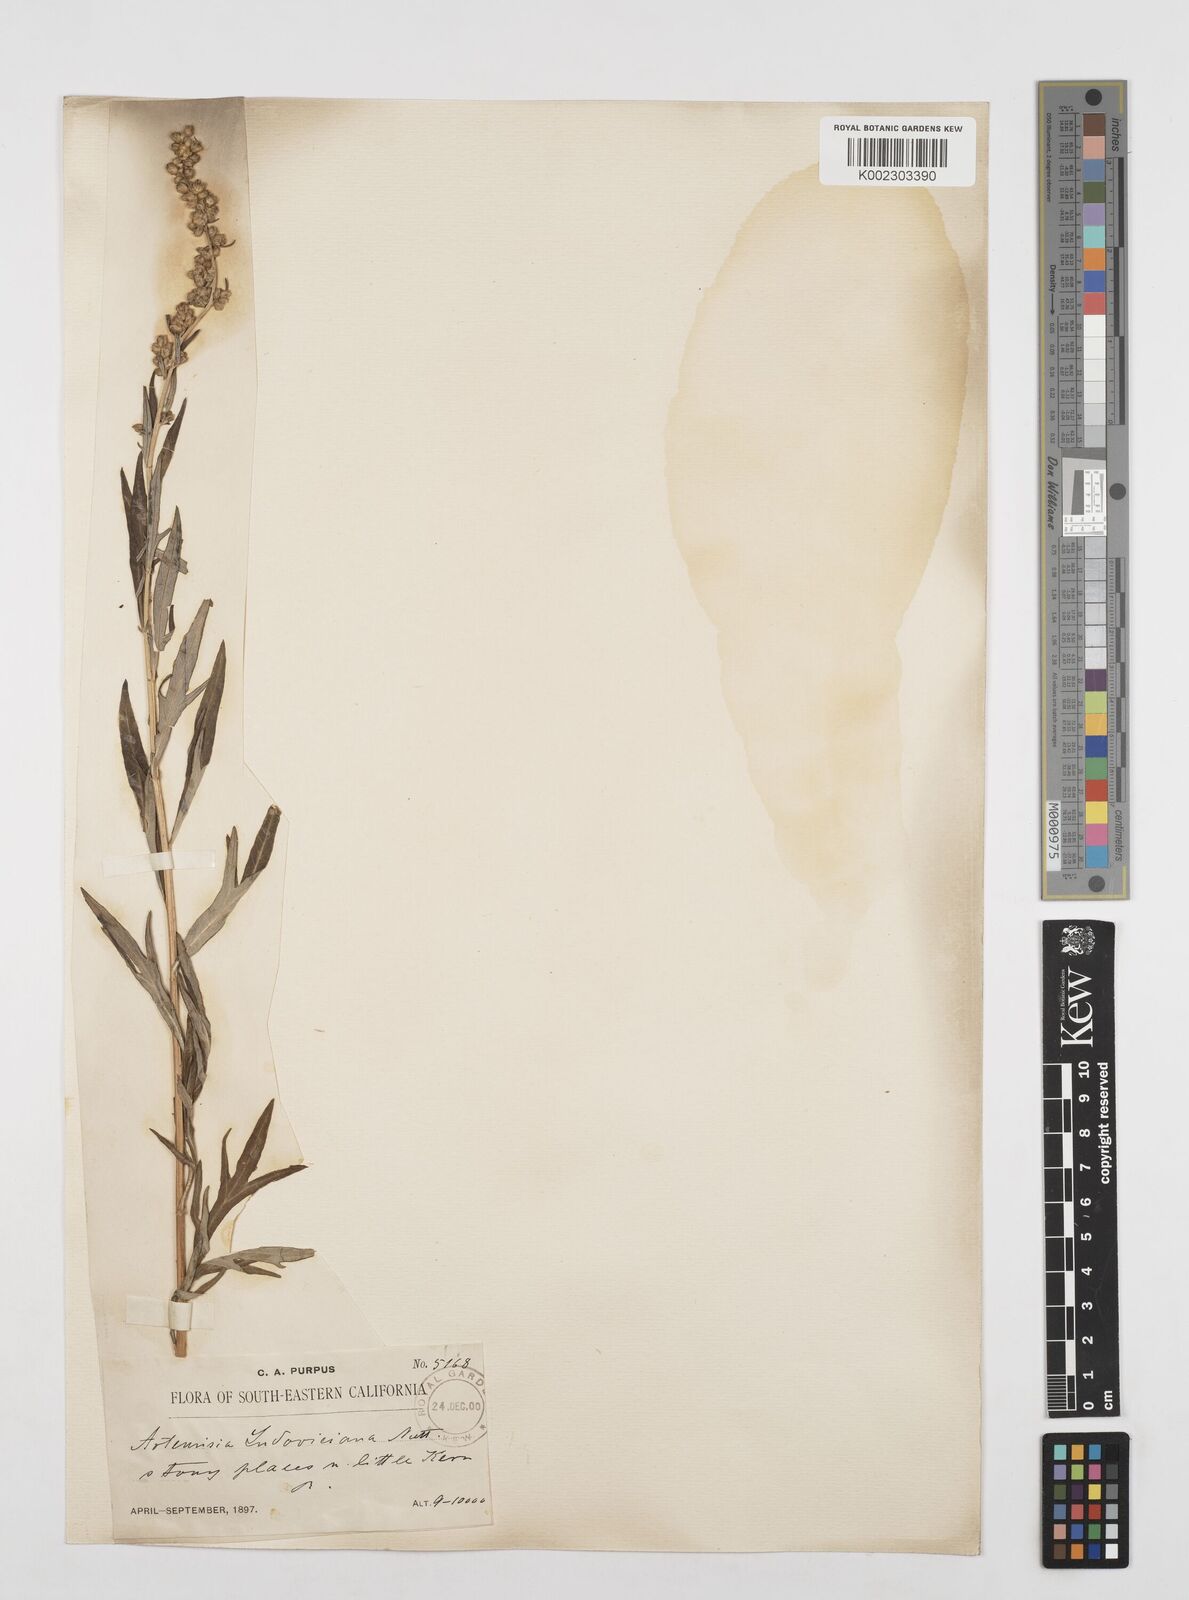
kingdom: Plantae
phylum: Tracheophyta
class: Magnoliopsida
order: Asterales
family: Asteraceae
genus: Artemisia
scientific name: Artemisia
